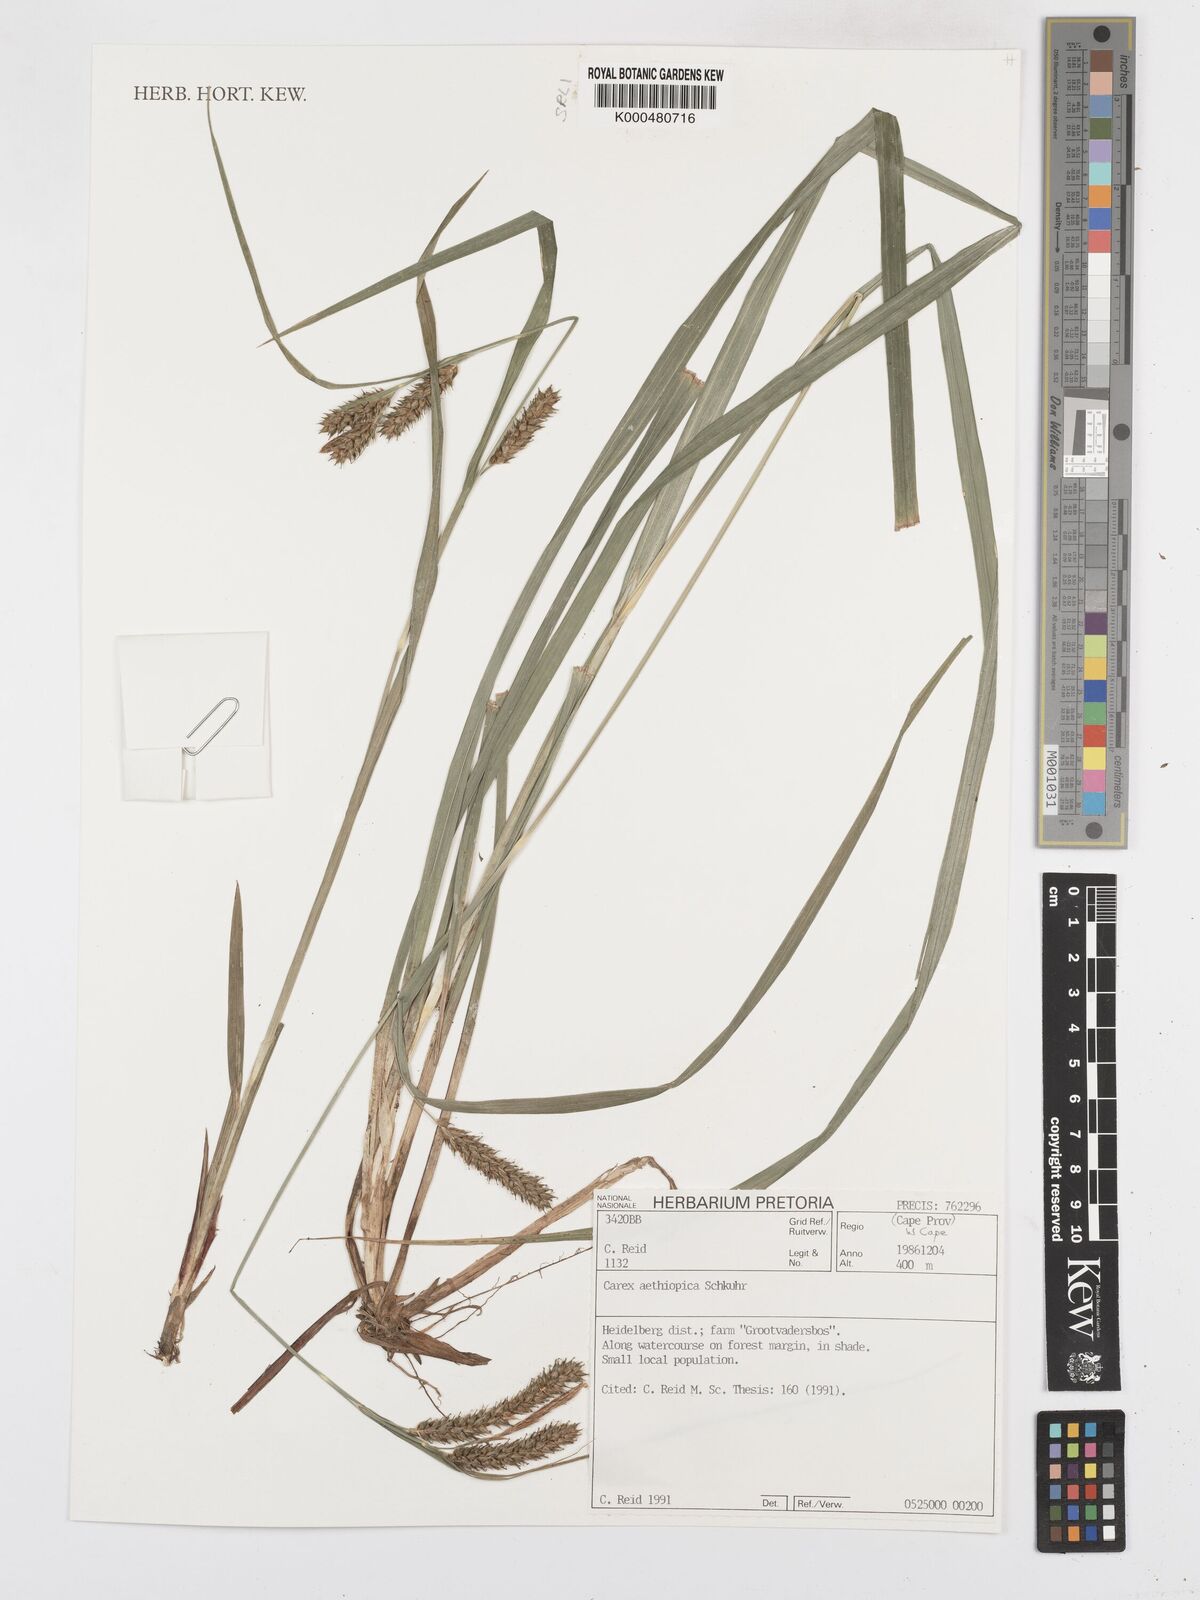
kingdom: Plantae
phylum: Tracheophyta
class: Liliopsida
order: Poales
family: Cyperaceae
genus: Carex
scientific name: Carex aethiopica
